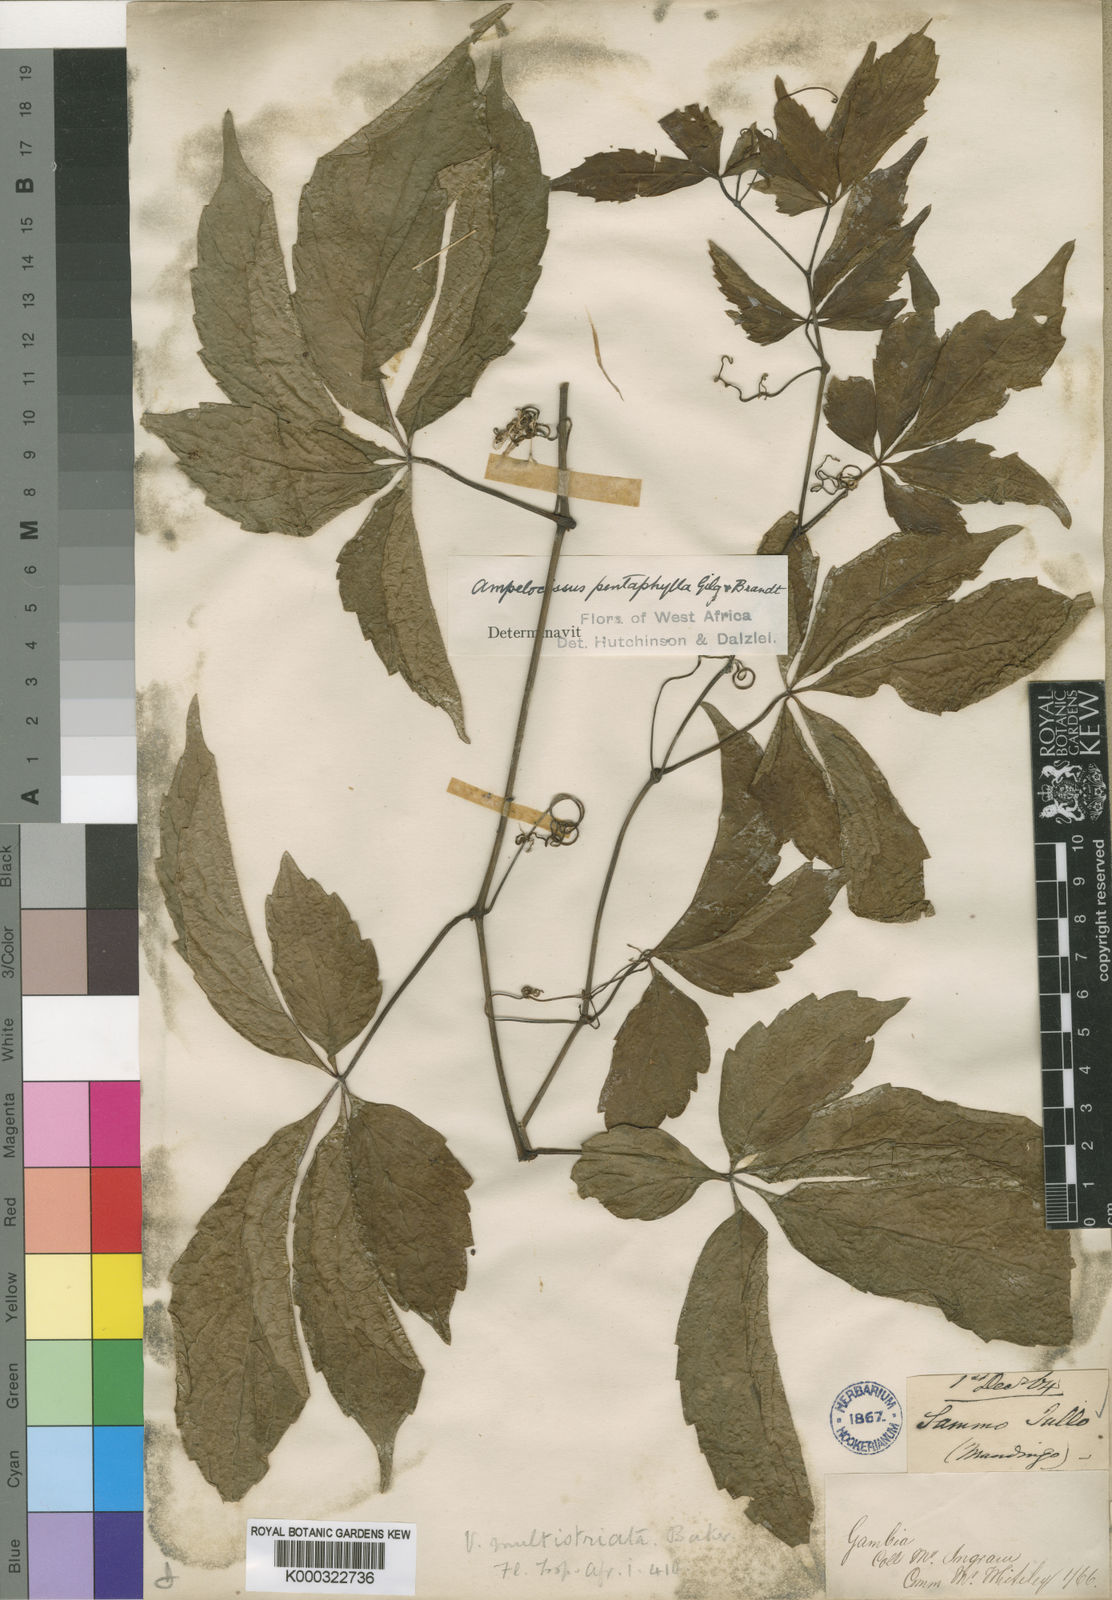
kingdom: Plantae
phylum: Tracheophyta
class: Magnoliopsida
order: Vitales
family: Vitaceae
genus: Ampelocissus
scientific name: Ampelocissus multistriata
